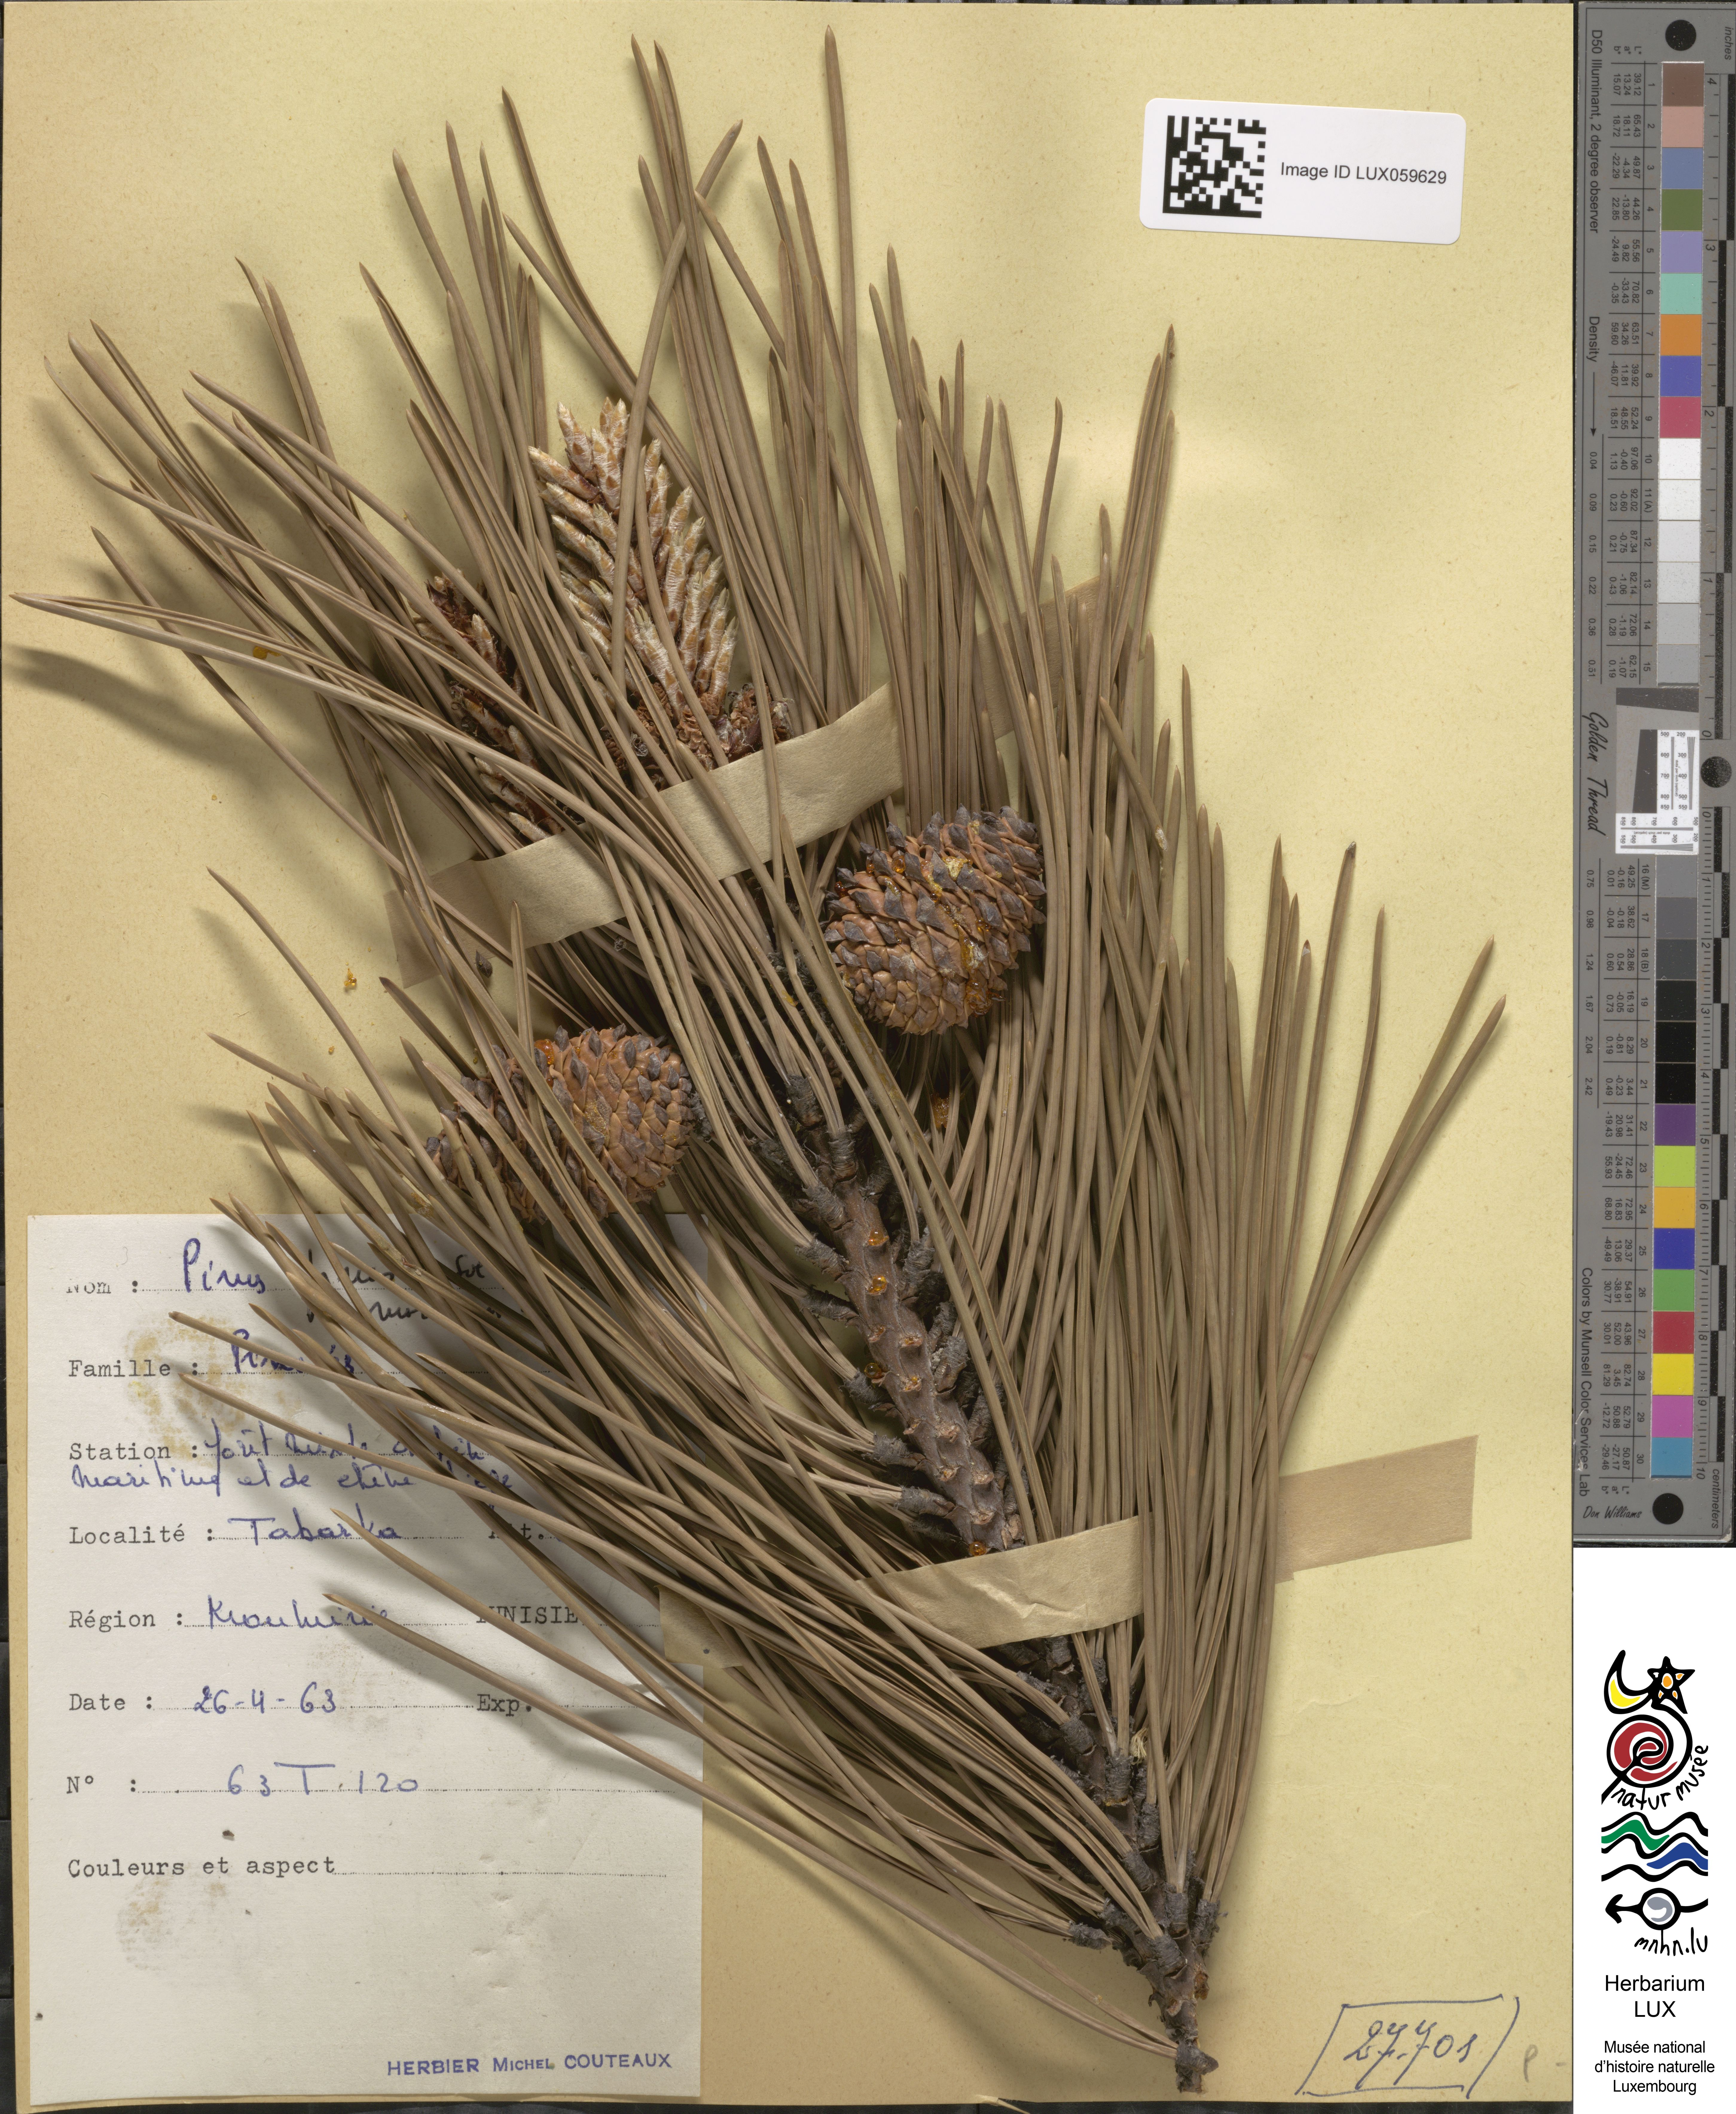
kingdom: Plantae
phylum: Tracheophyta
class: Pinopsida
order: Pinales
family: Pinaceae
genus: Pinus
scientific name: Pinus pinaster
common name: Maritime pine
